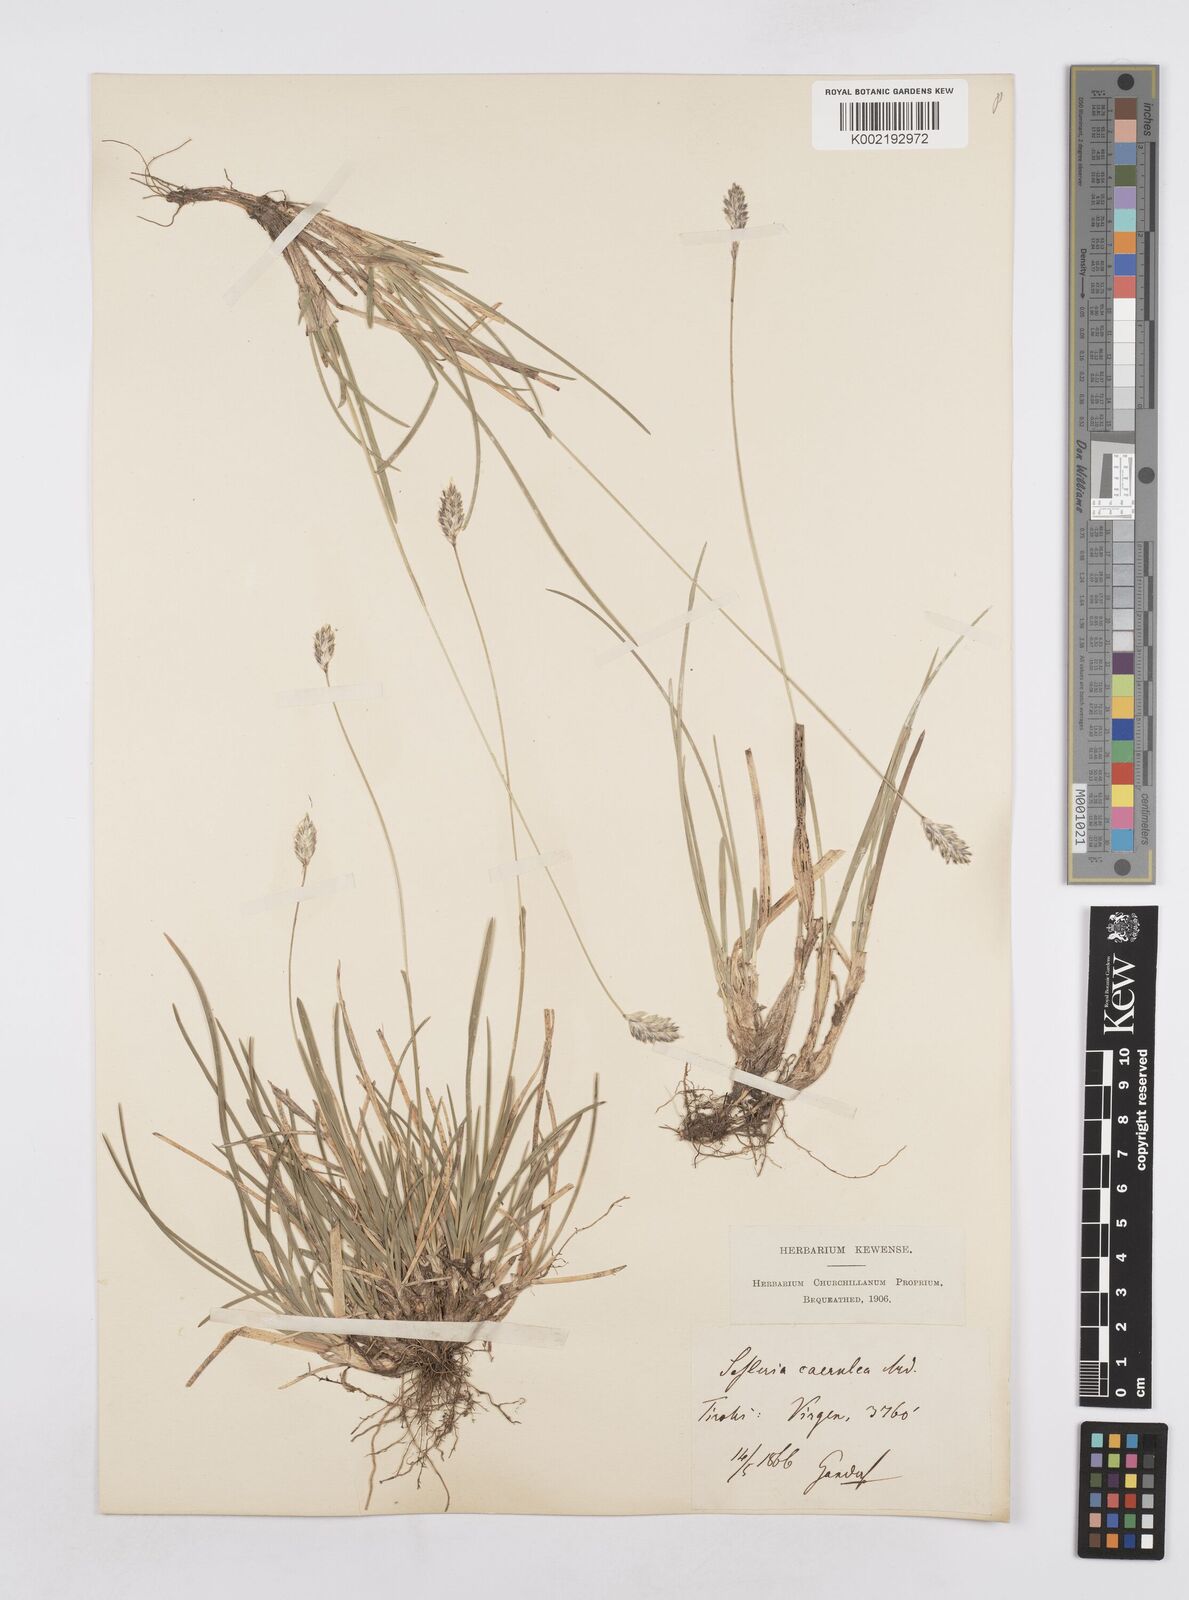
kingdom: Plantae
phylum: Tracheophyta
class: Liliopsida
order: Poales
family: Poaceae
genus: Sesleria
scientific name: Sesleria caerulea
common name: Blue moor-grass
